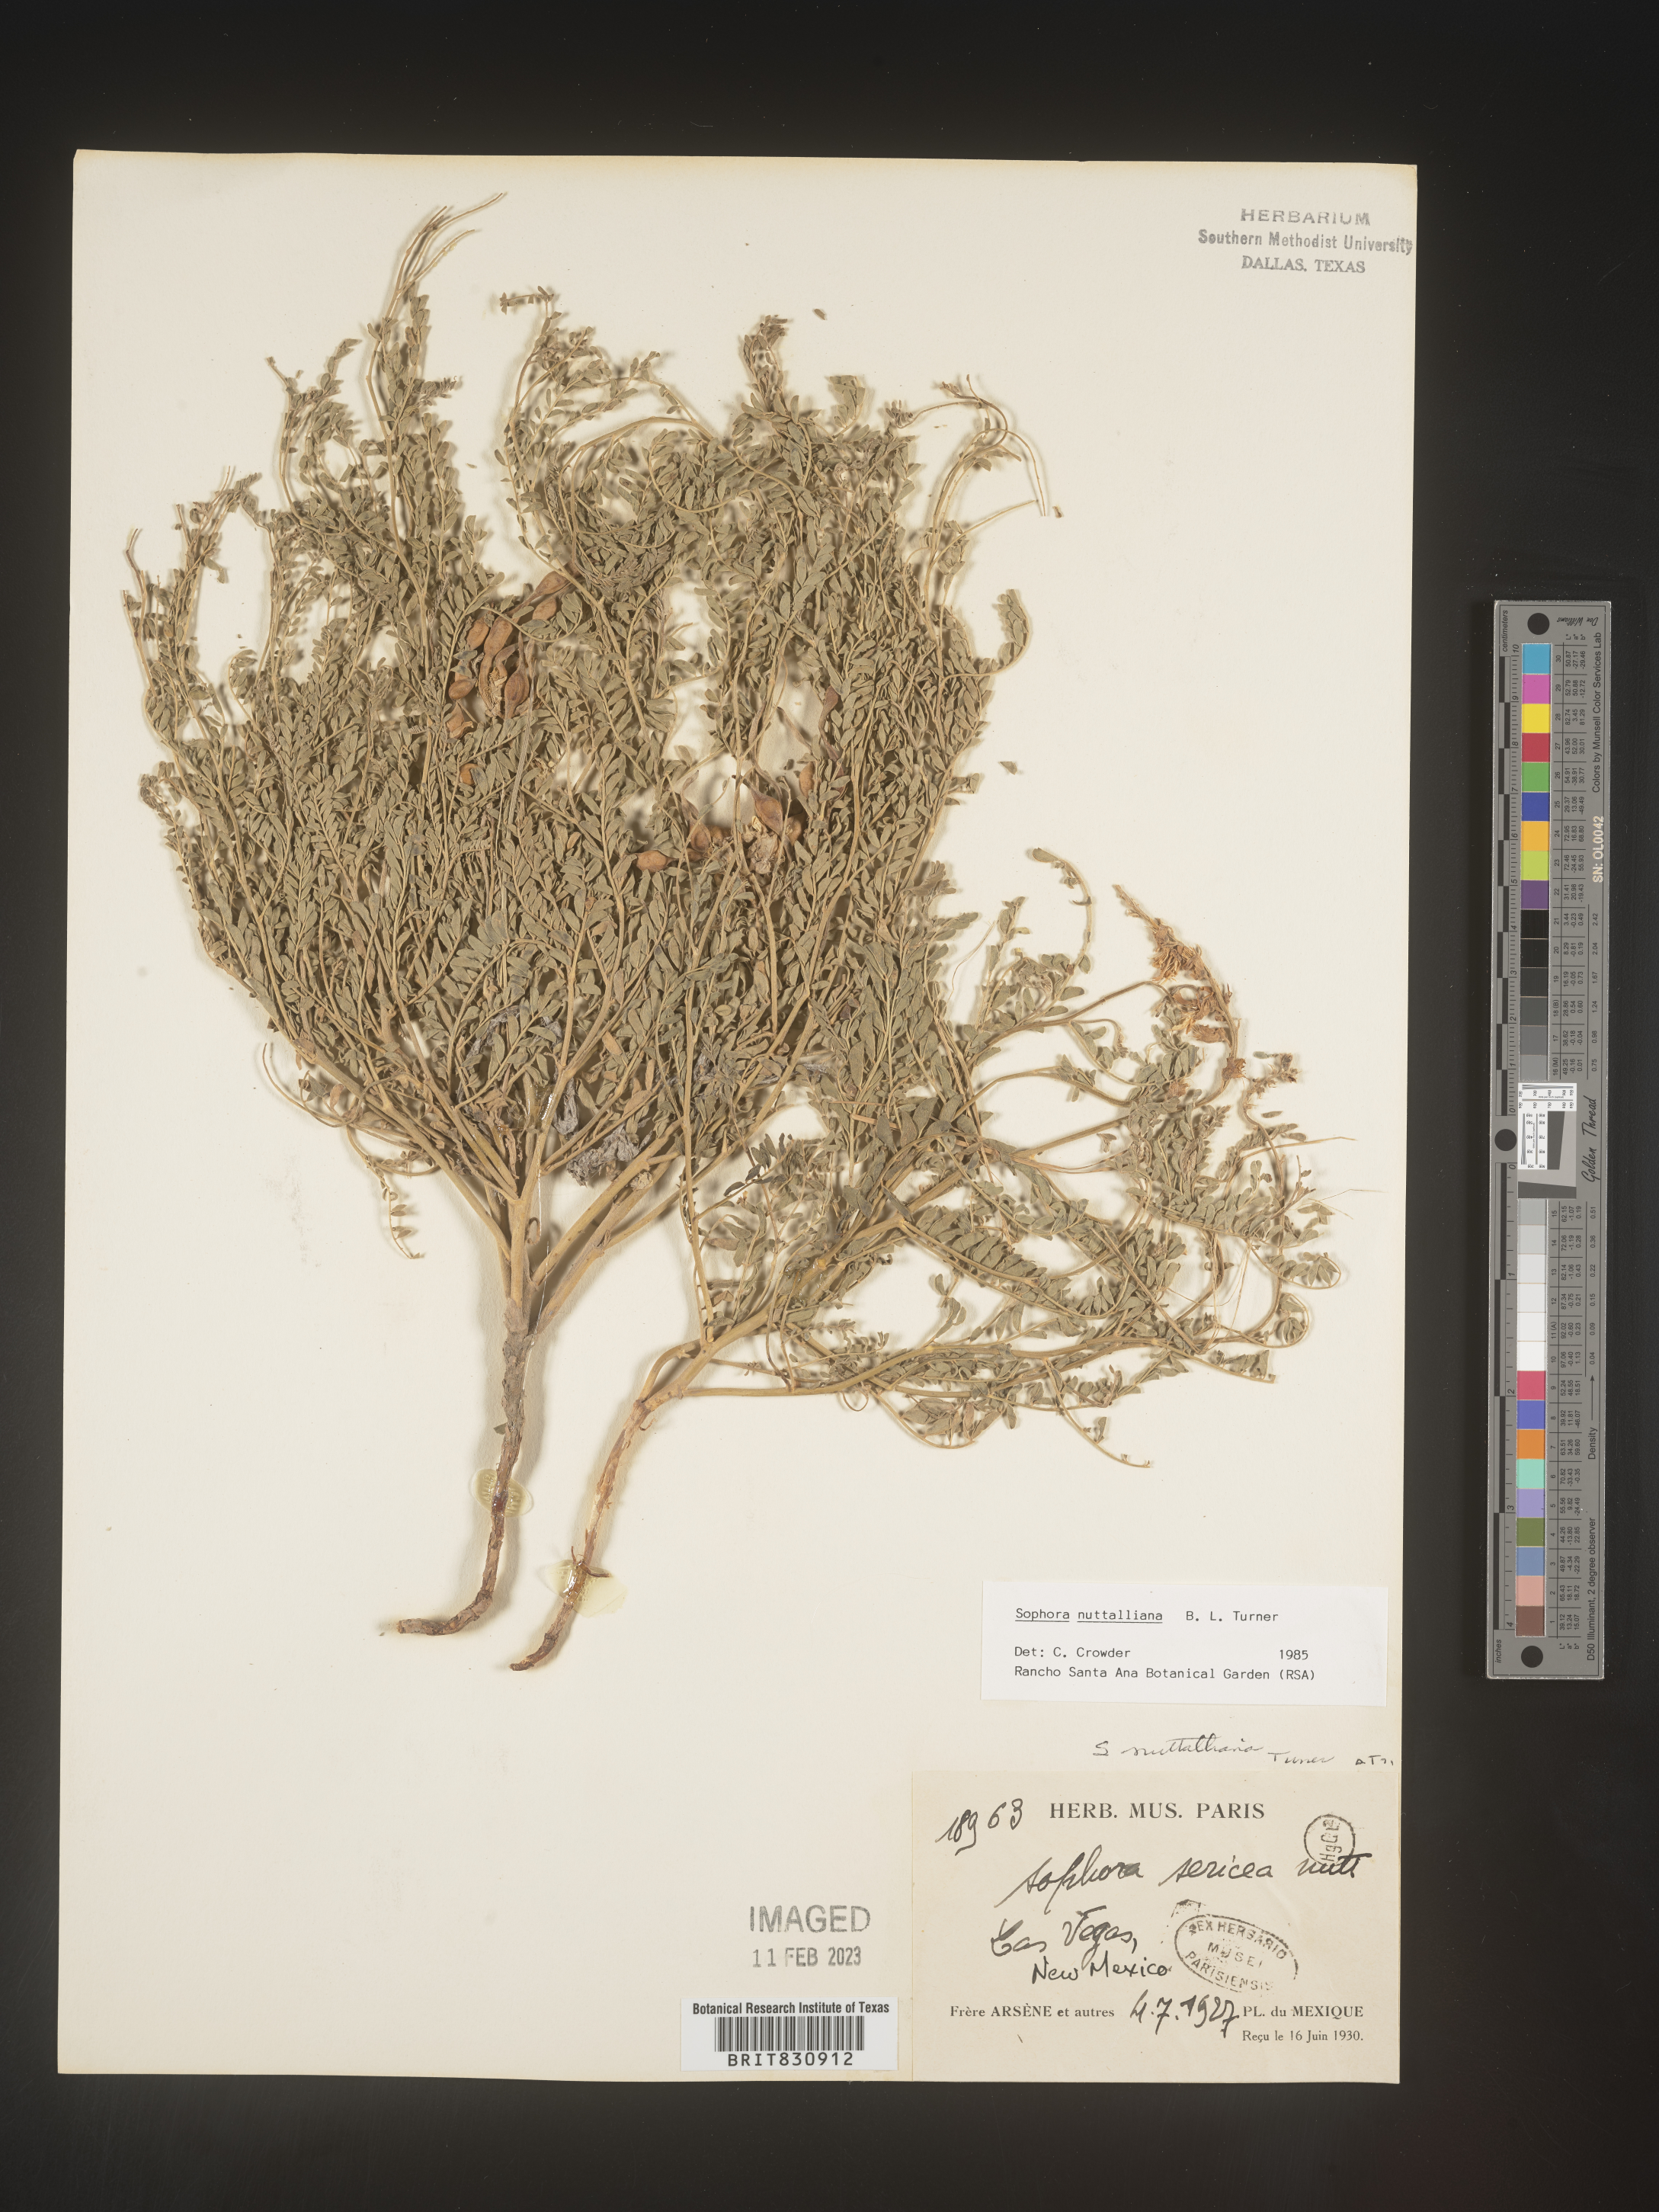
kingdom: Plantae
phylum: Tracheophyta
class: Magnoliopsida
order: Fabales
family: Fabaceae
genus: Sophora
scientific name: Sophora nuttalliana
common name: Silky sophora
